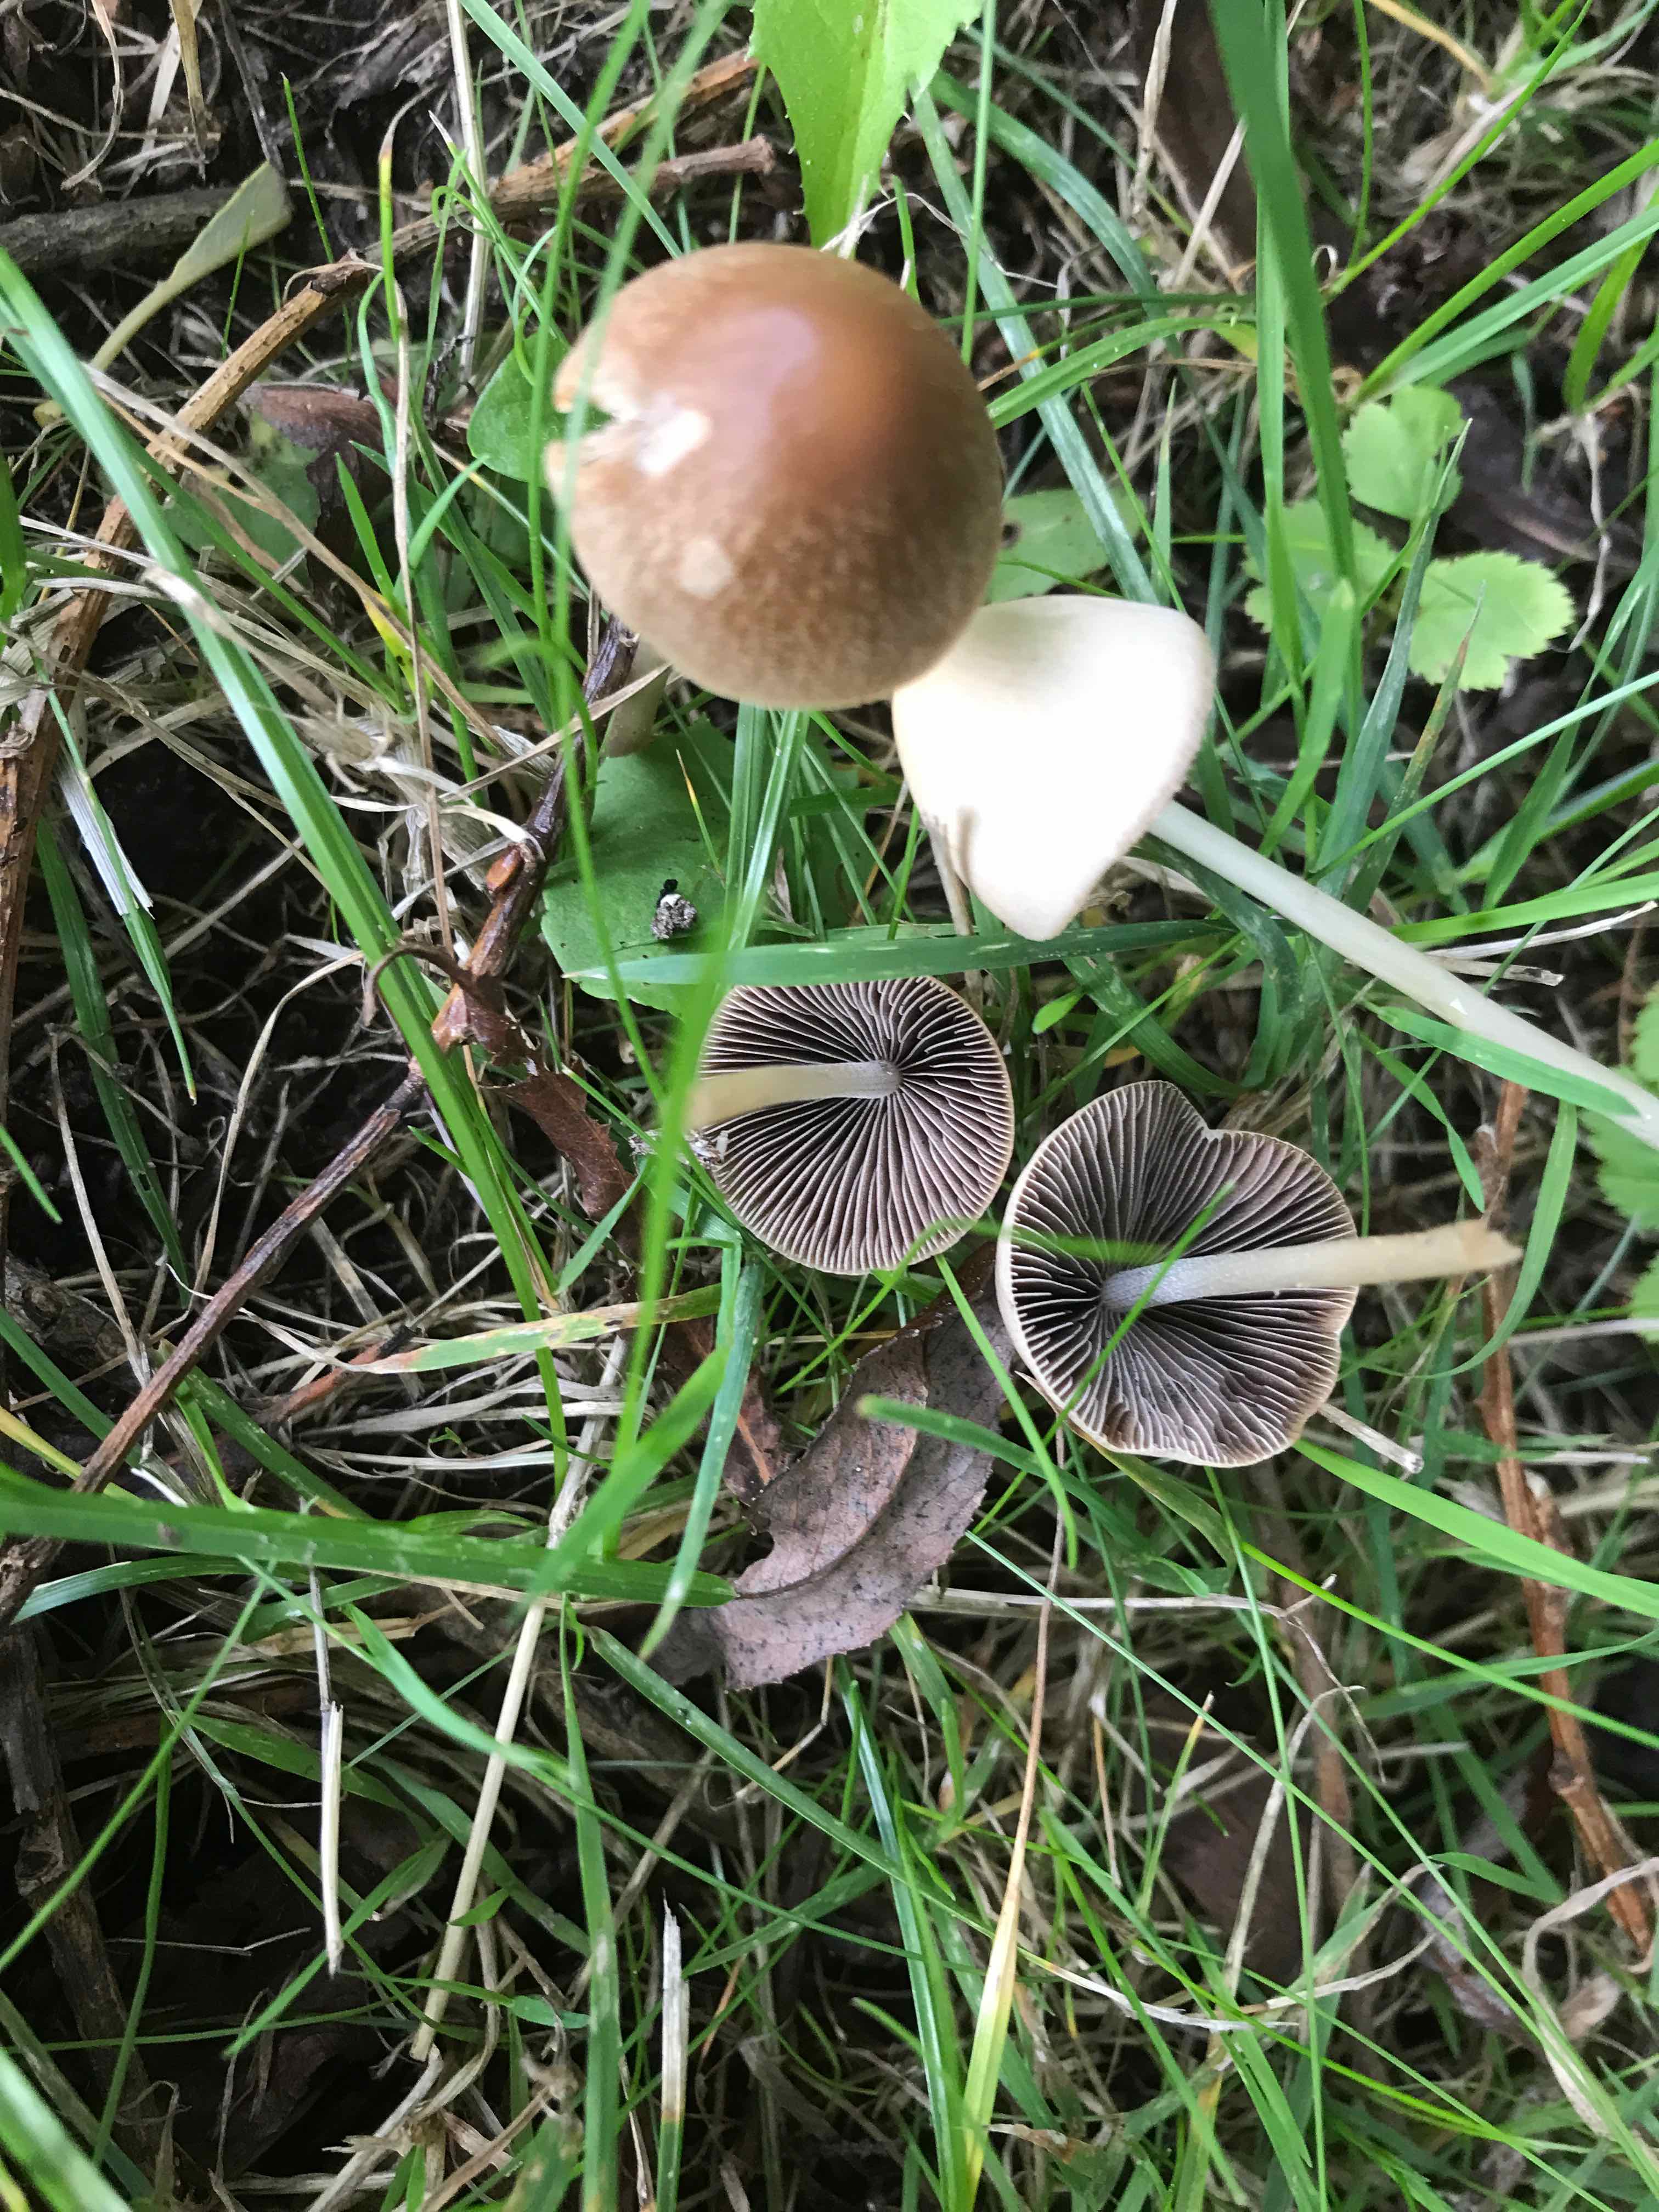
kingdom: Fungi
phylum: Basidiomycota
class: Agaricomycetes
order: Agaricales
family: Psathyrellaceae
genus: Parasola
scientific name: Parasola conopilea
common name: kegle-hjulhat
